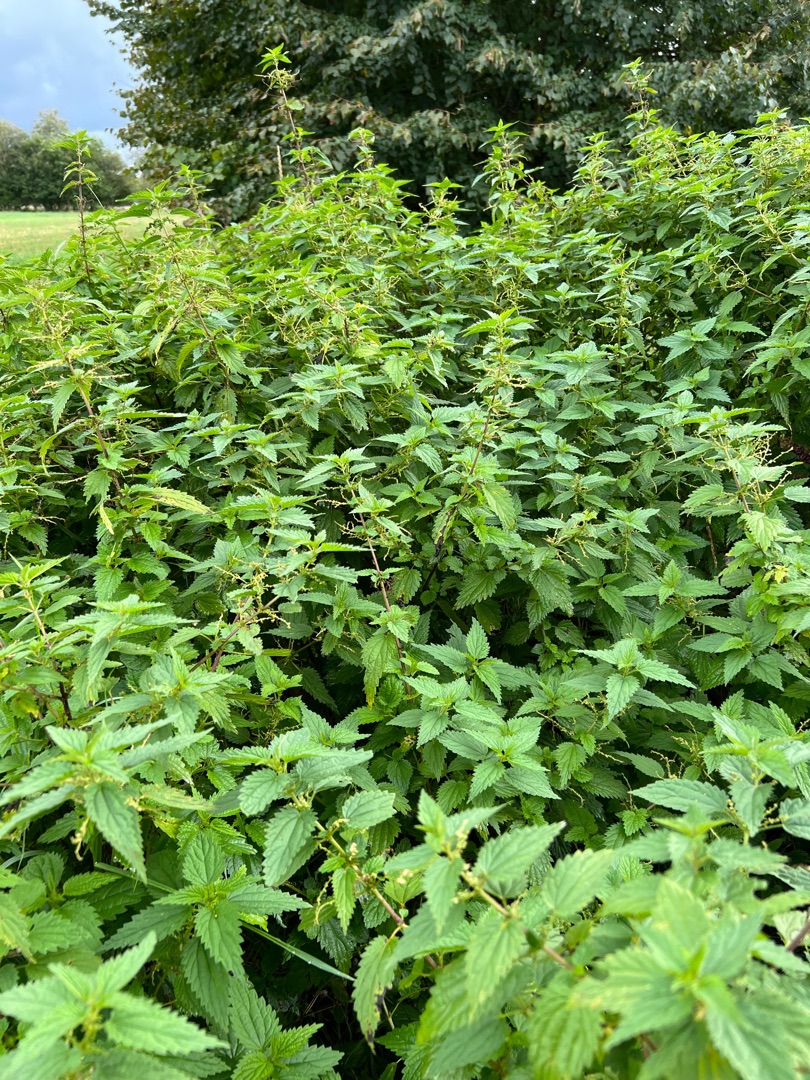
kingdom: Plantae
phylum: Tracheophyta
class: Magnoliopsida
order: Rosales
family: Urticaceae
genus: Urtica
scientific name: Urtica dioica
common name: Stor nælde
